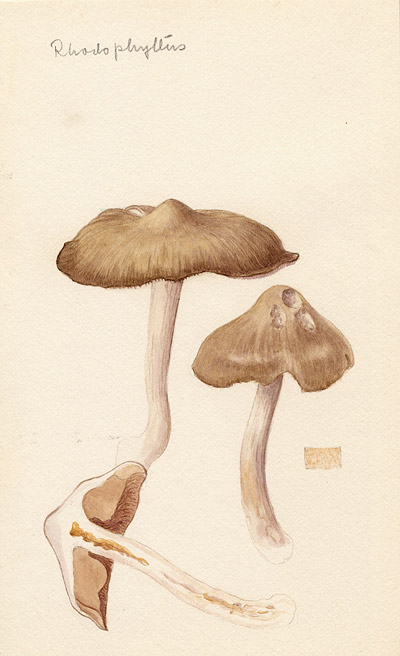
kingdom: Fungi
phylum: Basidiomycota
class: Agaricomycetes
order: Agaricales
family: Entolomataceae
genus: Entoloma
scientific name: Entoloma
